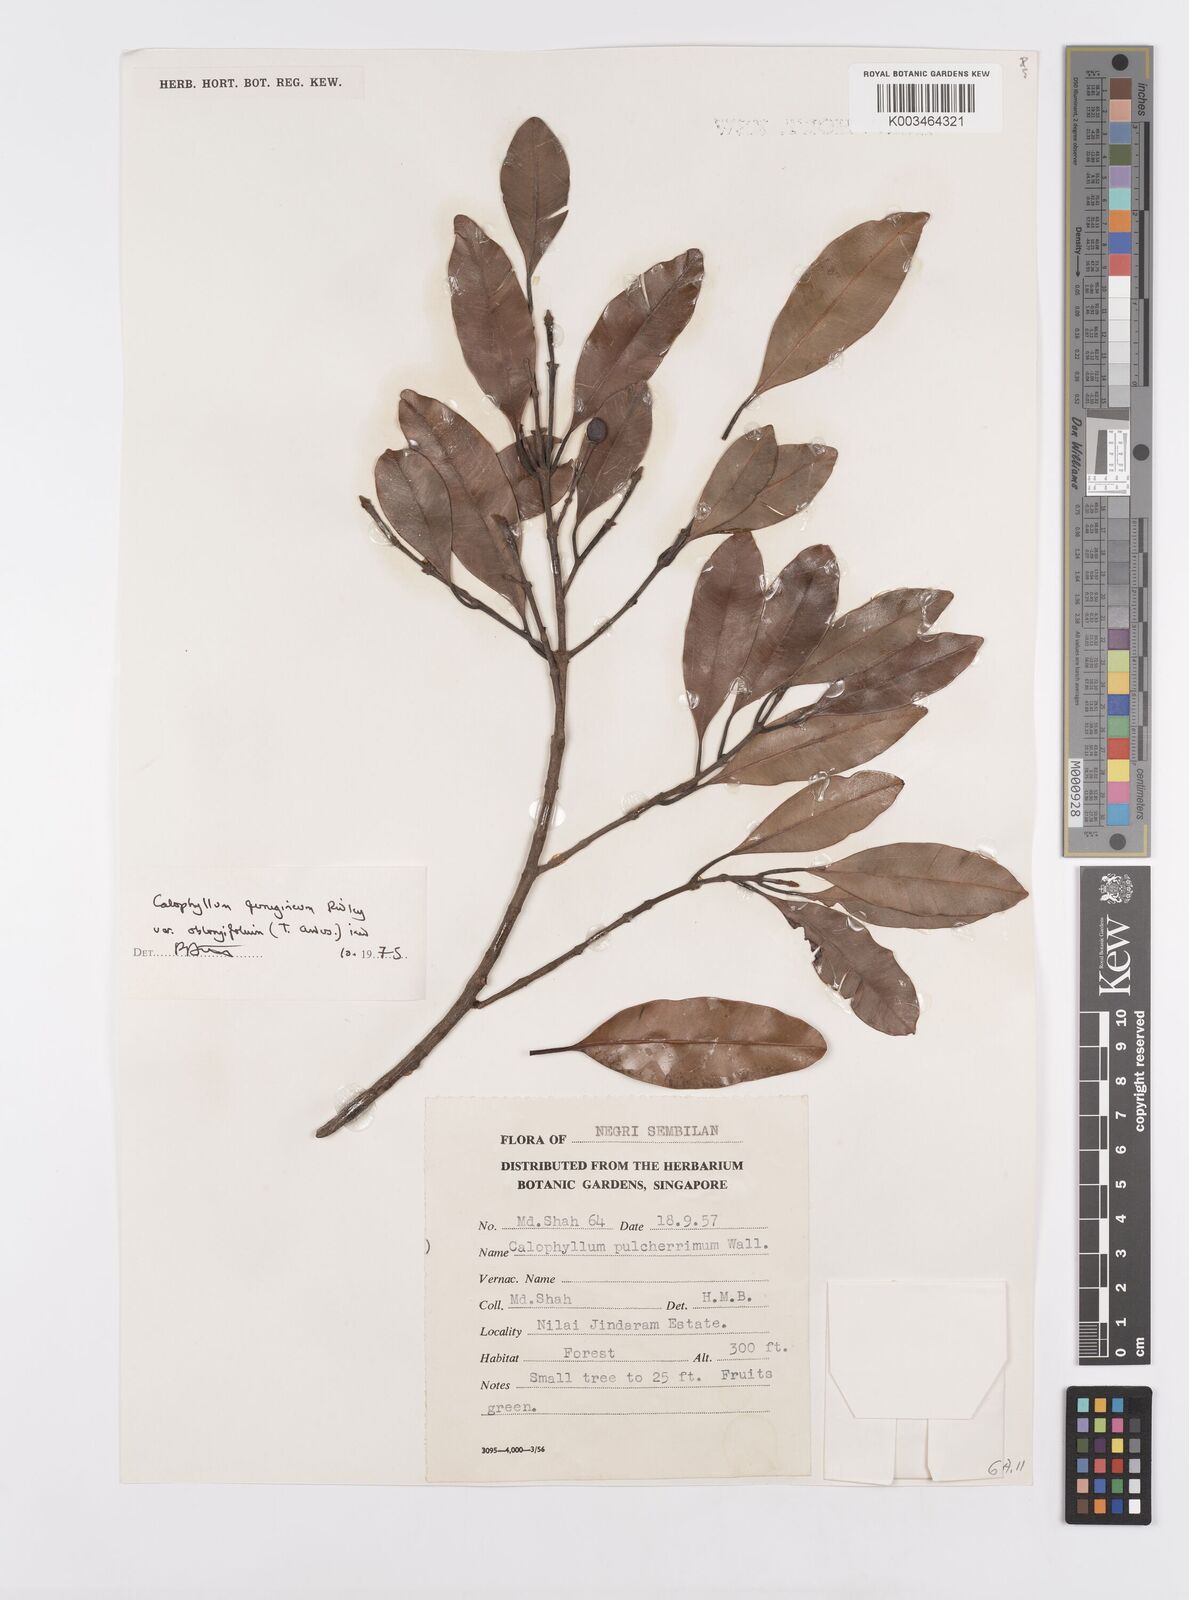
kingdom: Plantae
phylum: Tracheophyta
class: Magnoliopsida
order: Malpighiales
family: Calophyllaceae
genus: Calophyllum
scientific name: Calophyllum ferrugineum
